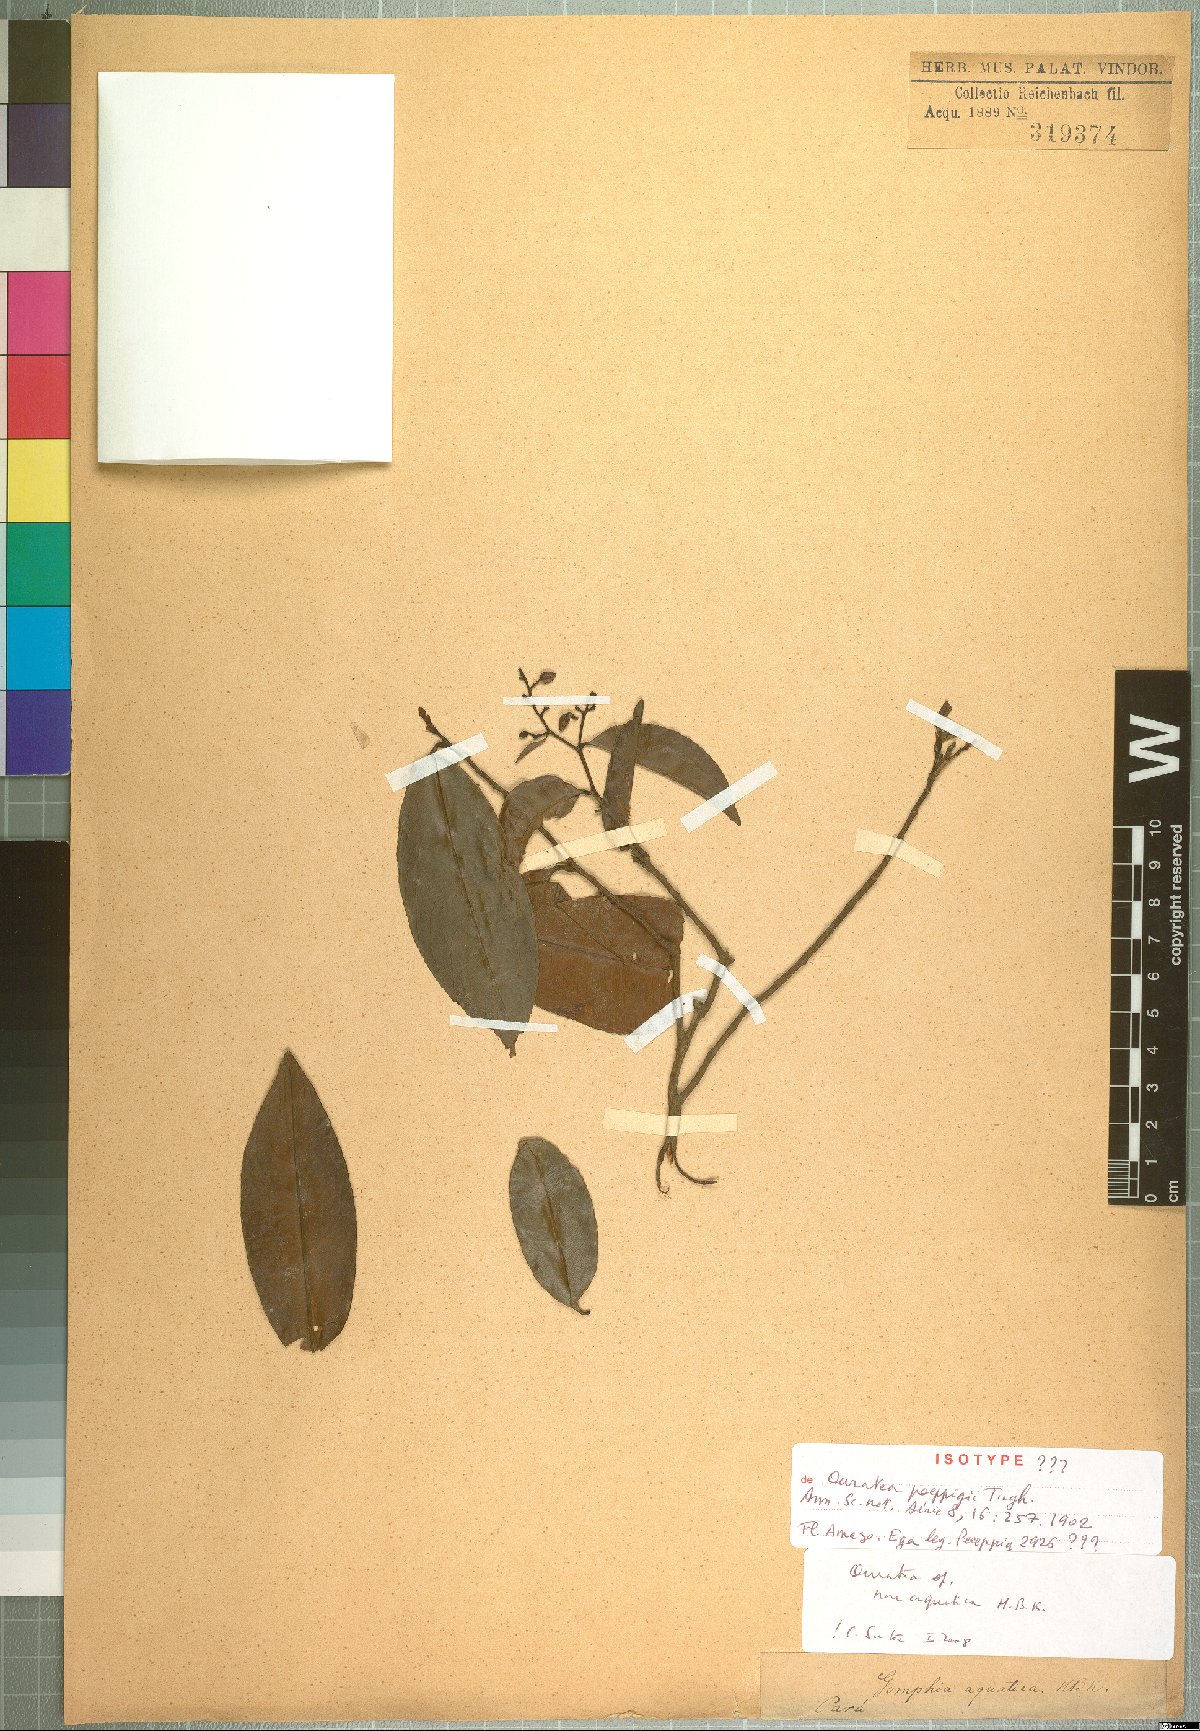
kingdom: Plantae
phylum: Tracheophyta
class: Magnoliopsida
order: Malpighiales
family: Ochnaceae
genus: Ouratea
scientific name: Ouratea
